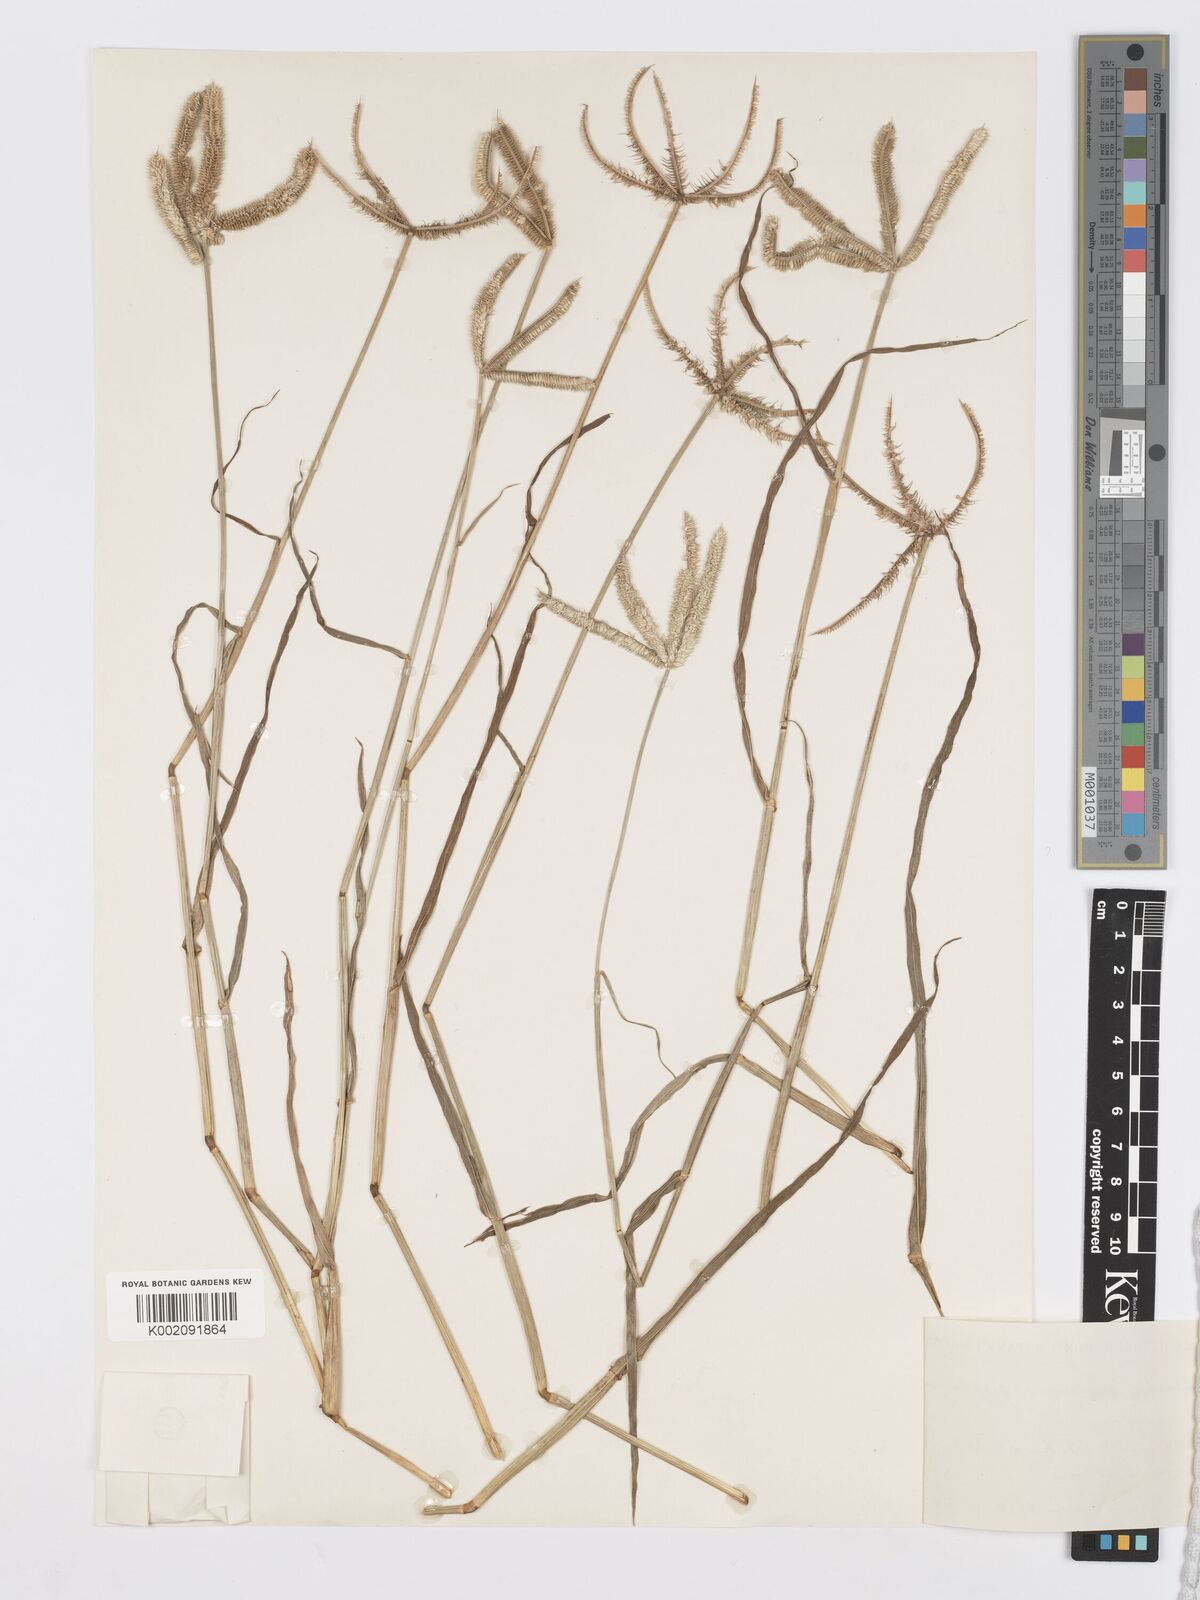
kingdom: Plantae
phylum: Tracheophyta
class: Liliopsida
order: Poales
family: Poaceae
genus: Dactyloctenium
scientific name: Dactyloctenium aegyptium
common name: Egyptian grass
